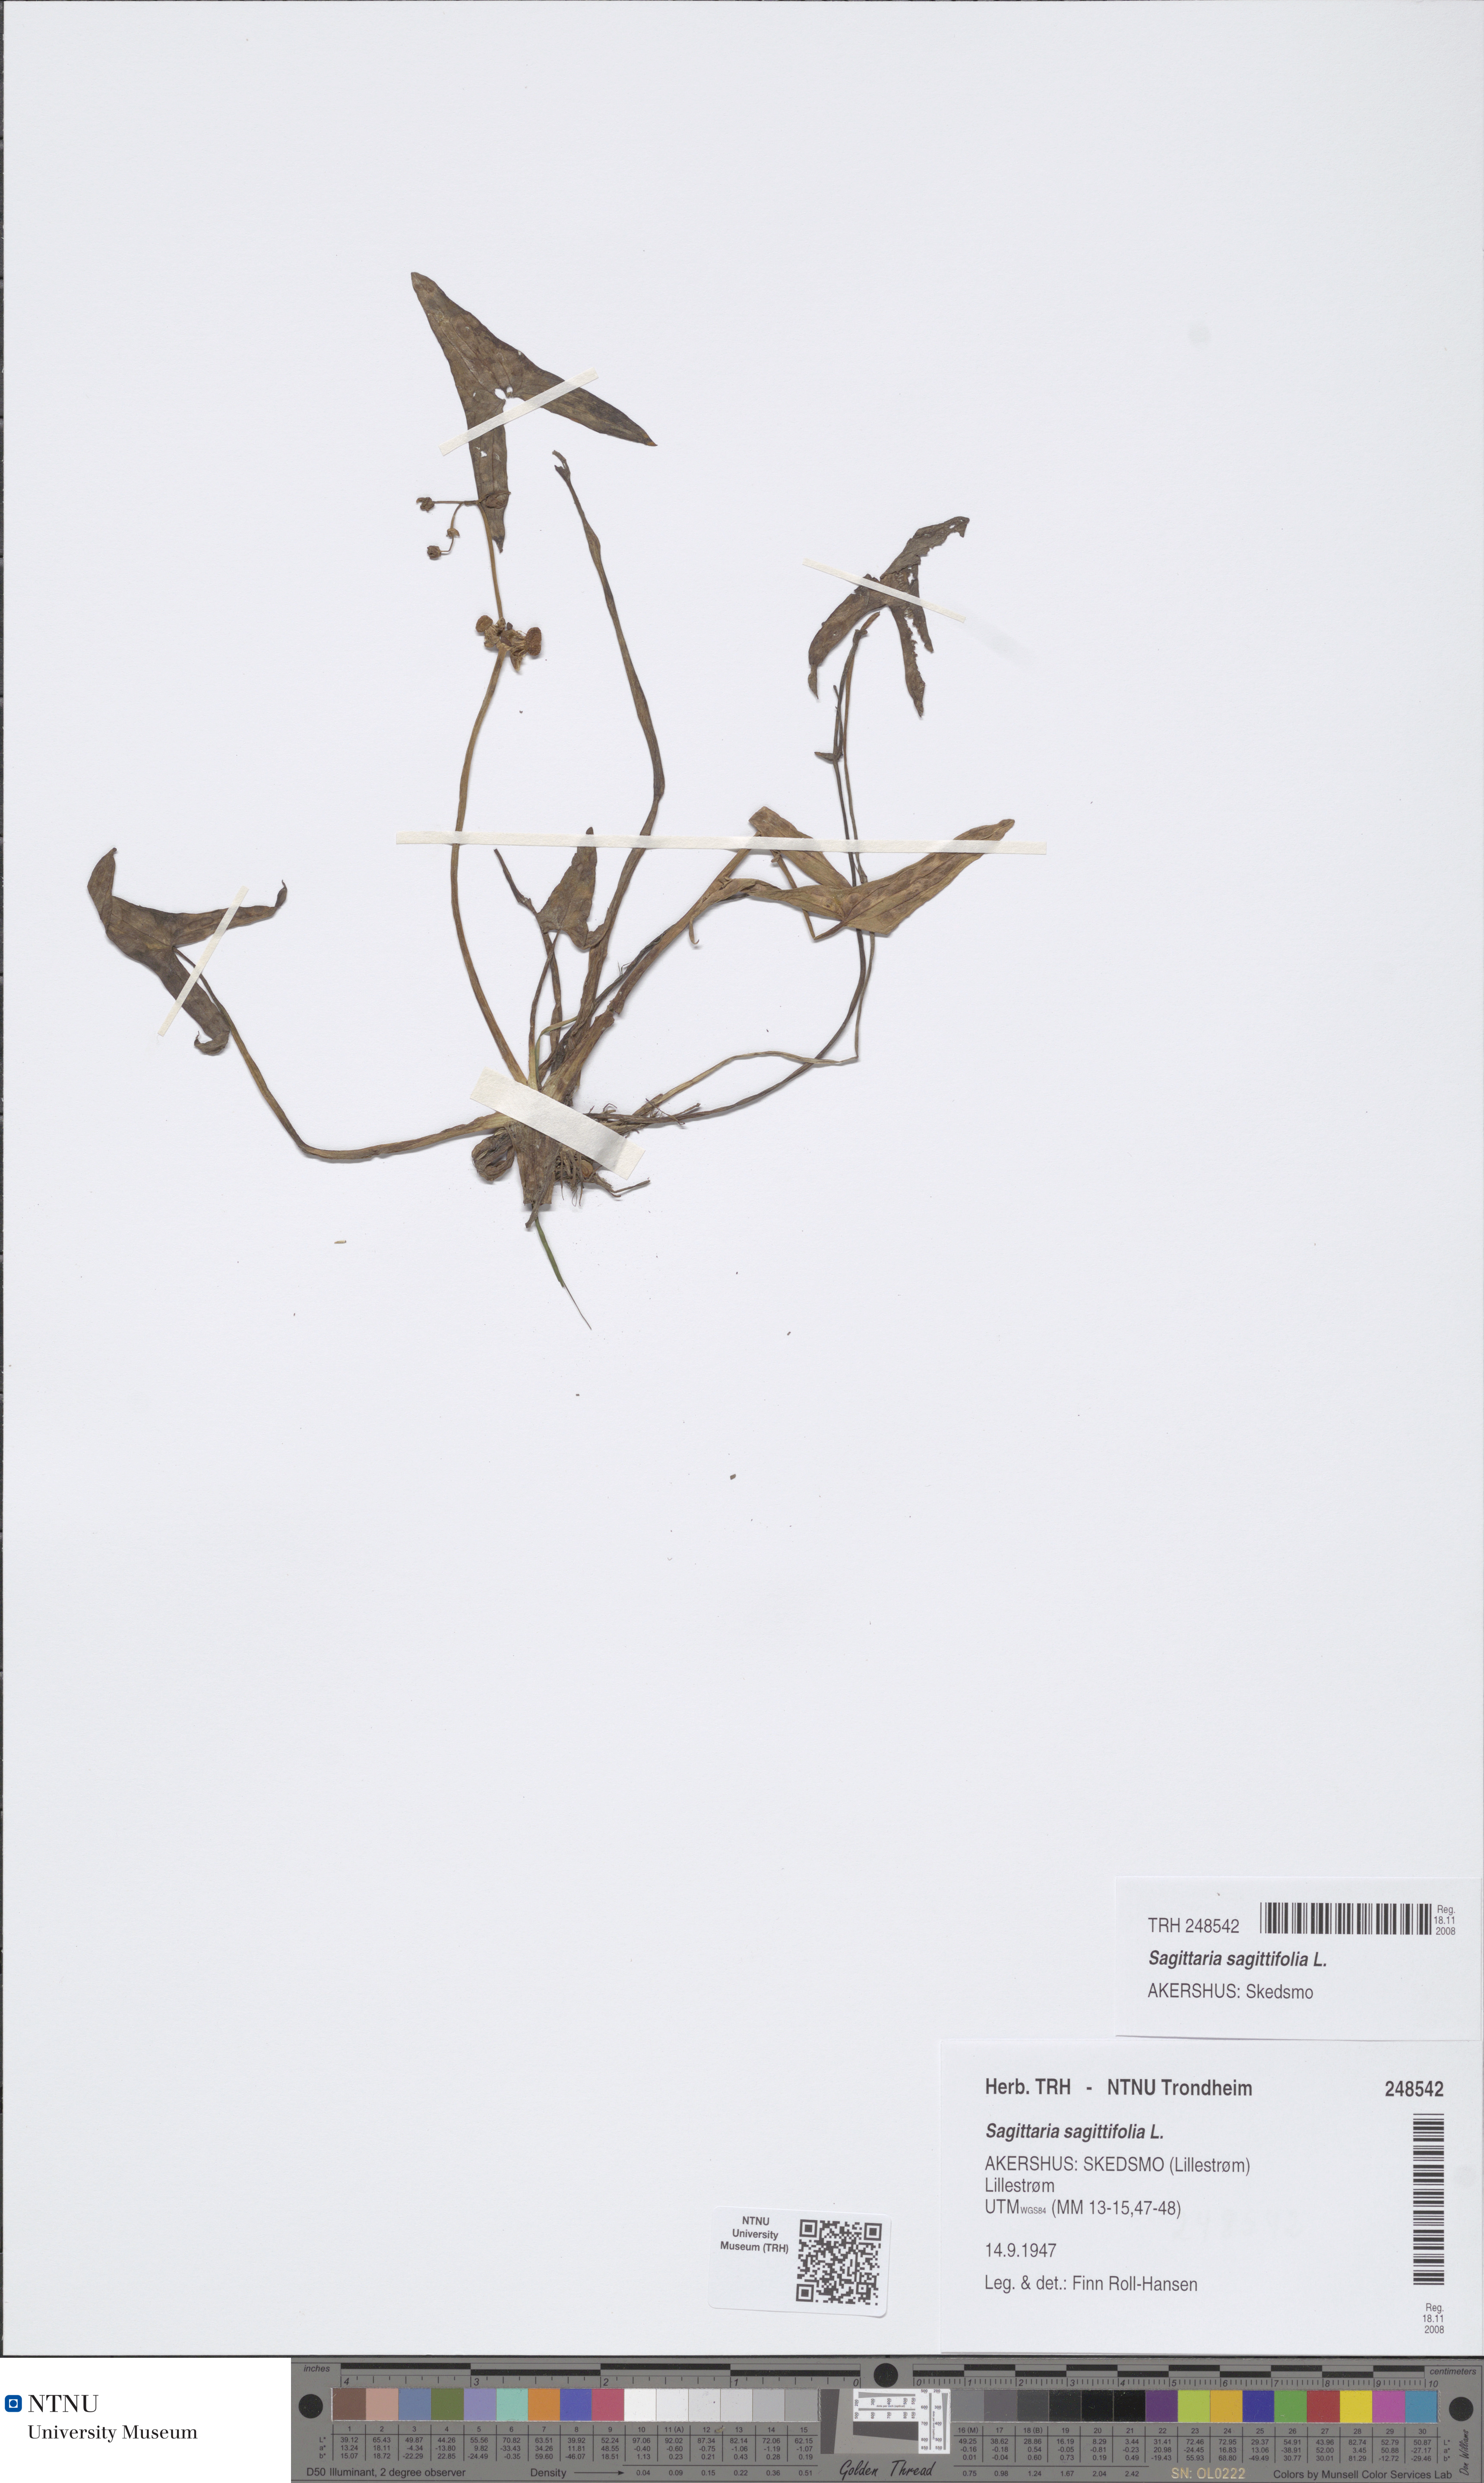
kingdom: Plantae
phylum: Tracheophyta
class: Liliopsida
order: Alismatales
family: Alismataceae
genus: Sagittaria
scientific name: Sagittaria sagittifolia
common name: Arrowhead
